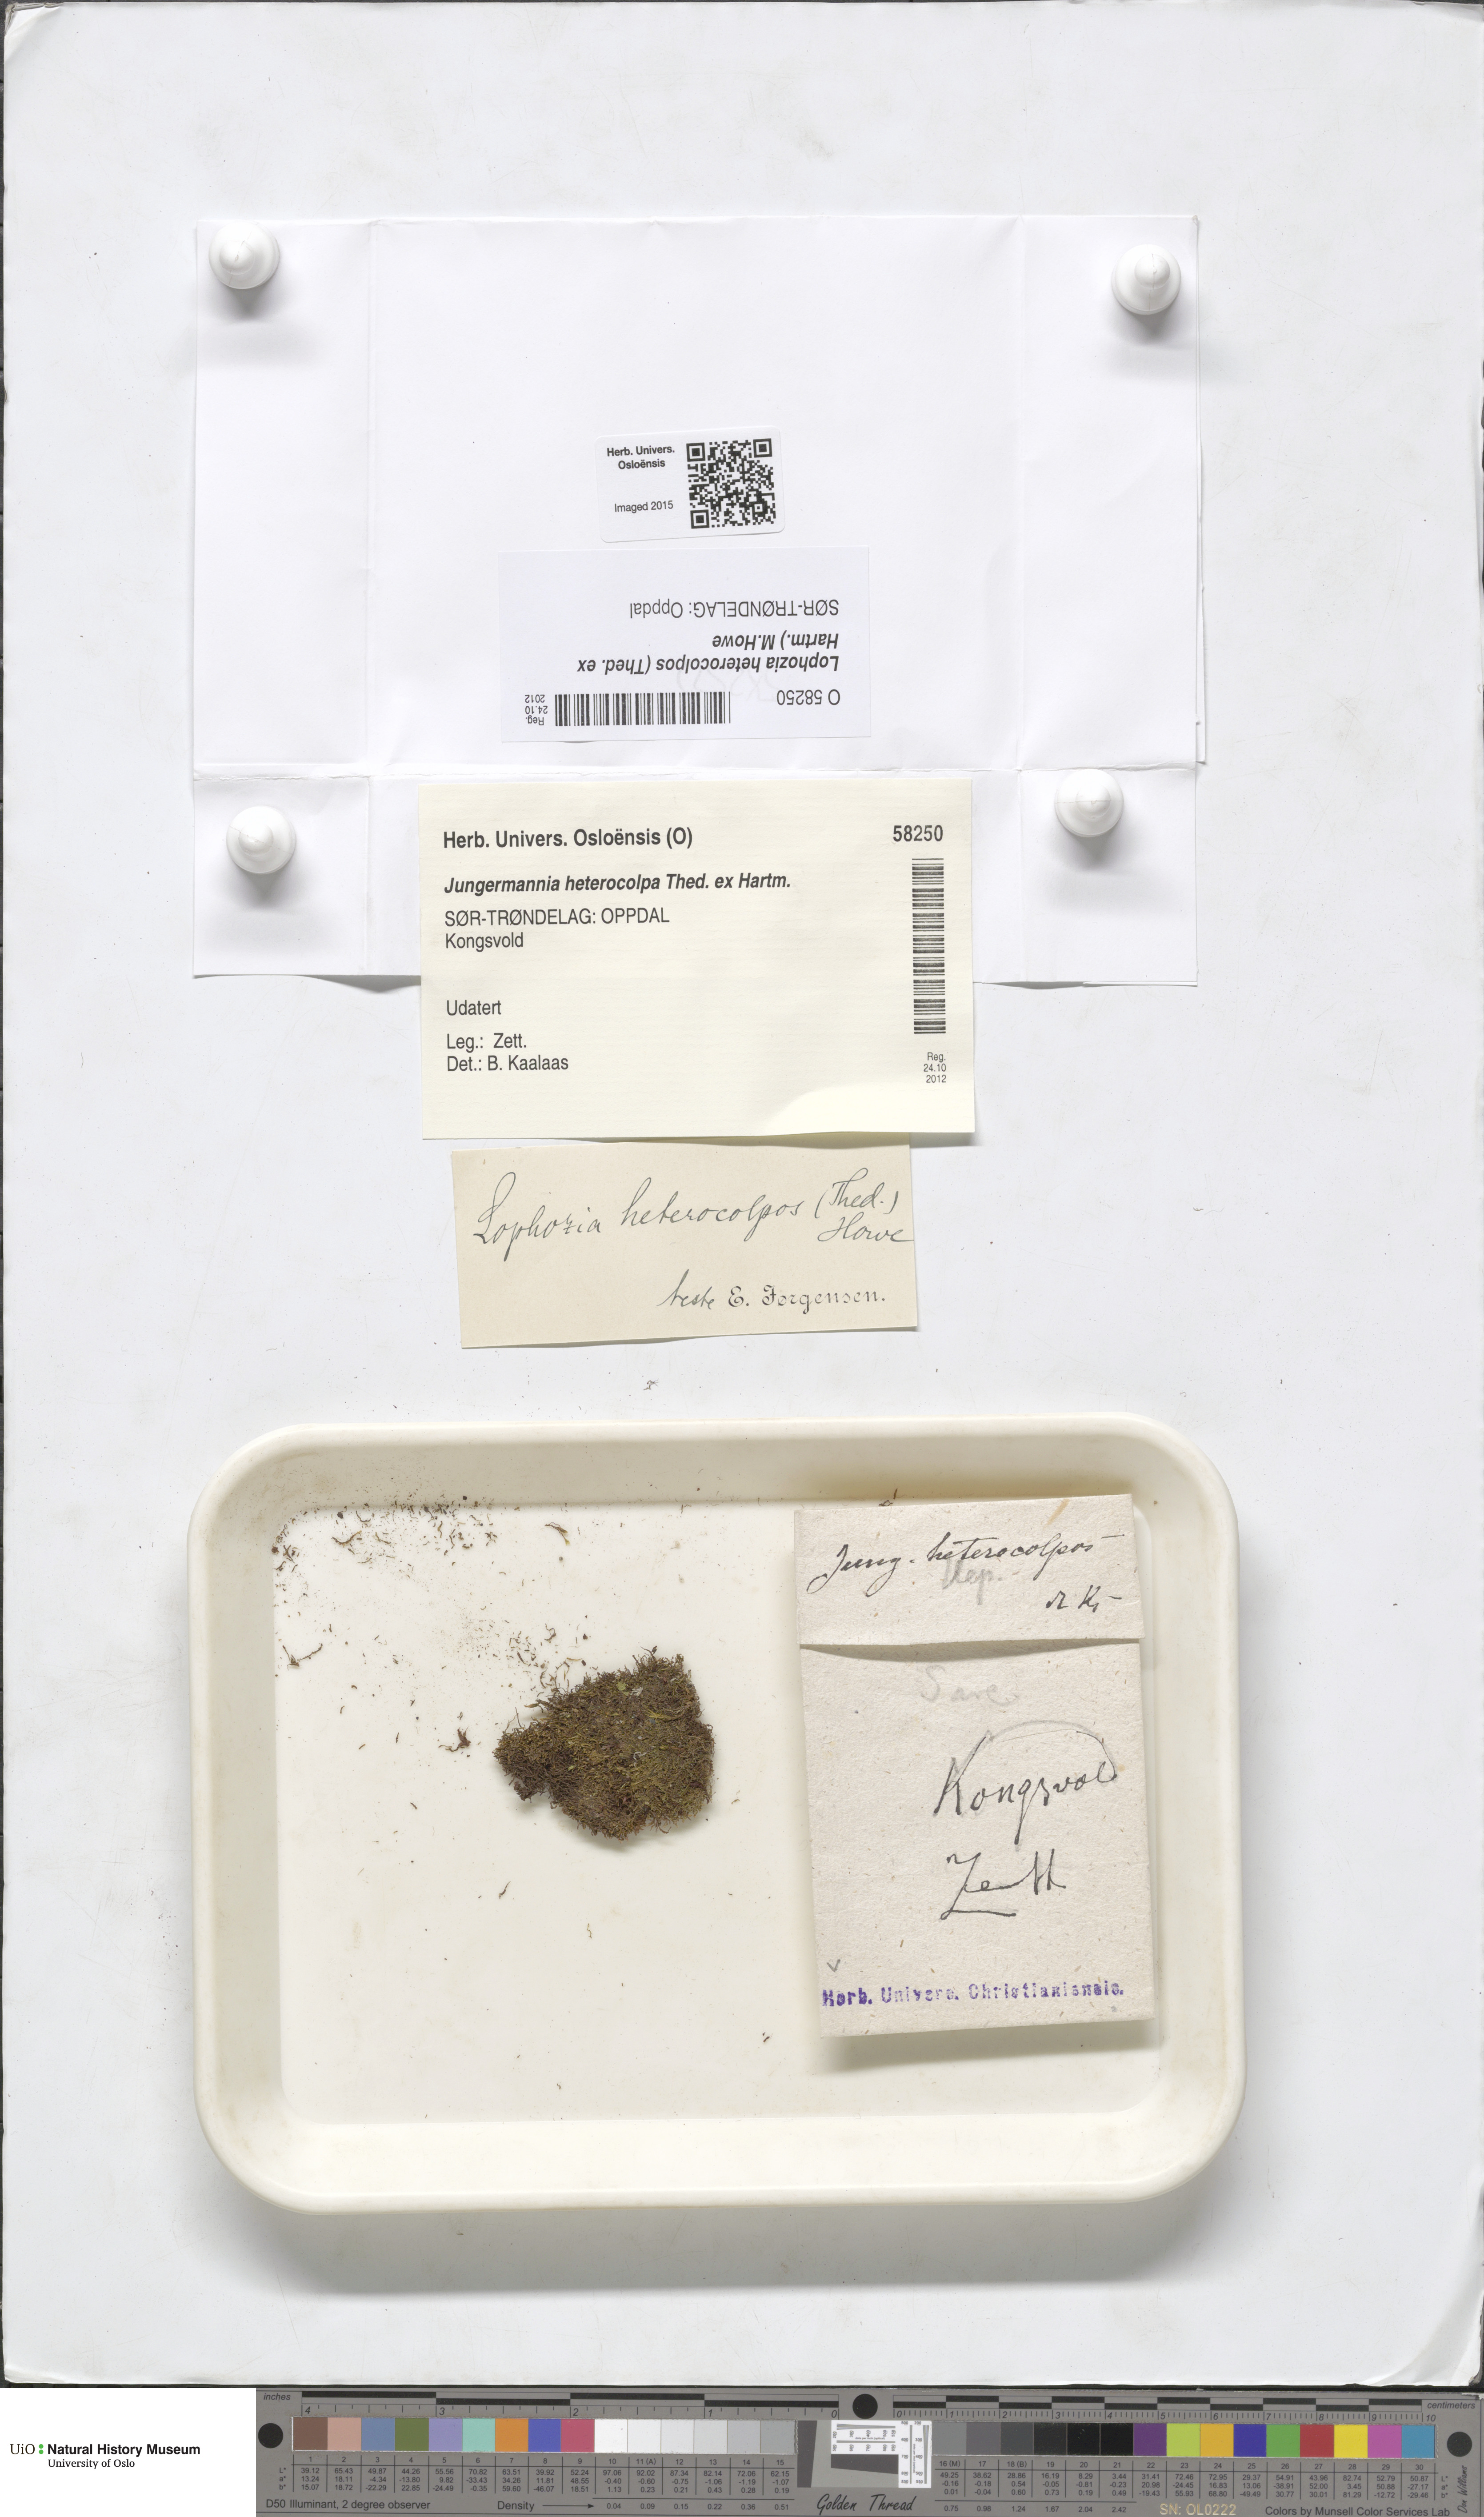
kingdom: Plantae
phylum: Marchantiophyta
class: Jungermanniopsida
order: Jungermanniales
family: Jungermanniaceae
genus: Mesoptychia
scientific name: Mesoptychia heterocolpos
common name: Ragged notchwort
